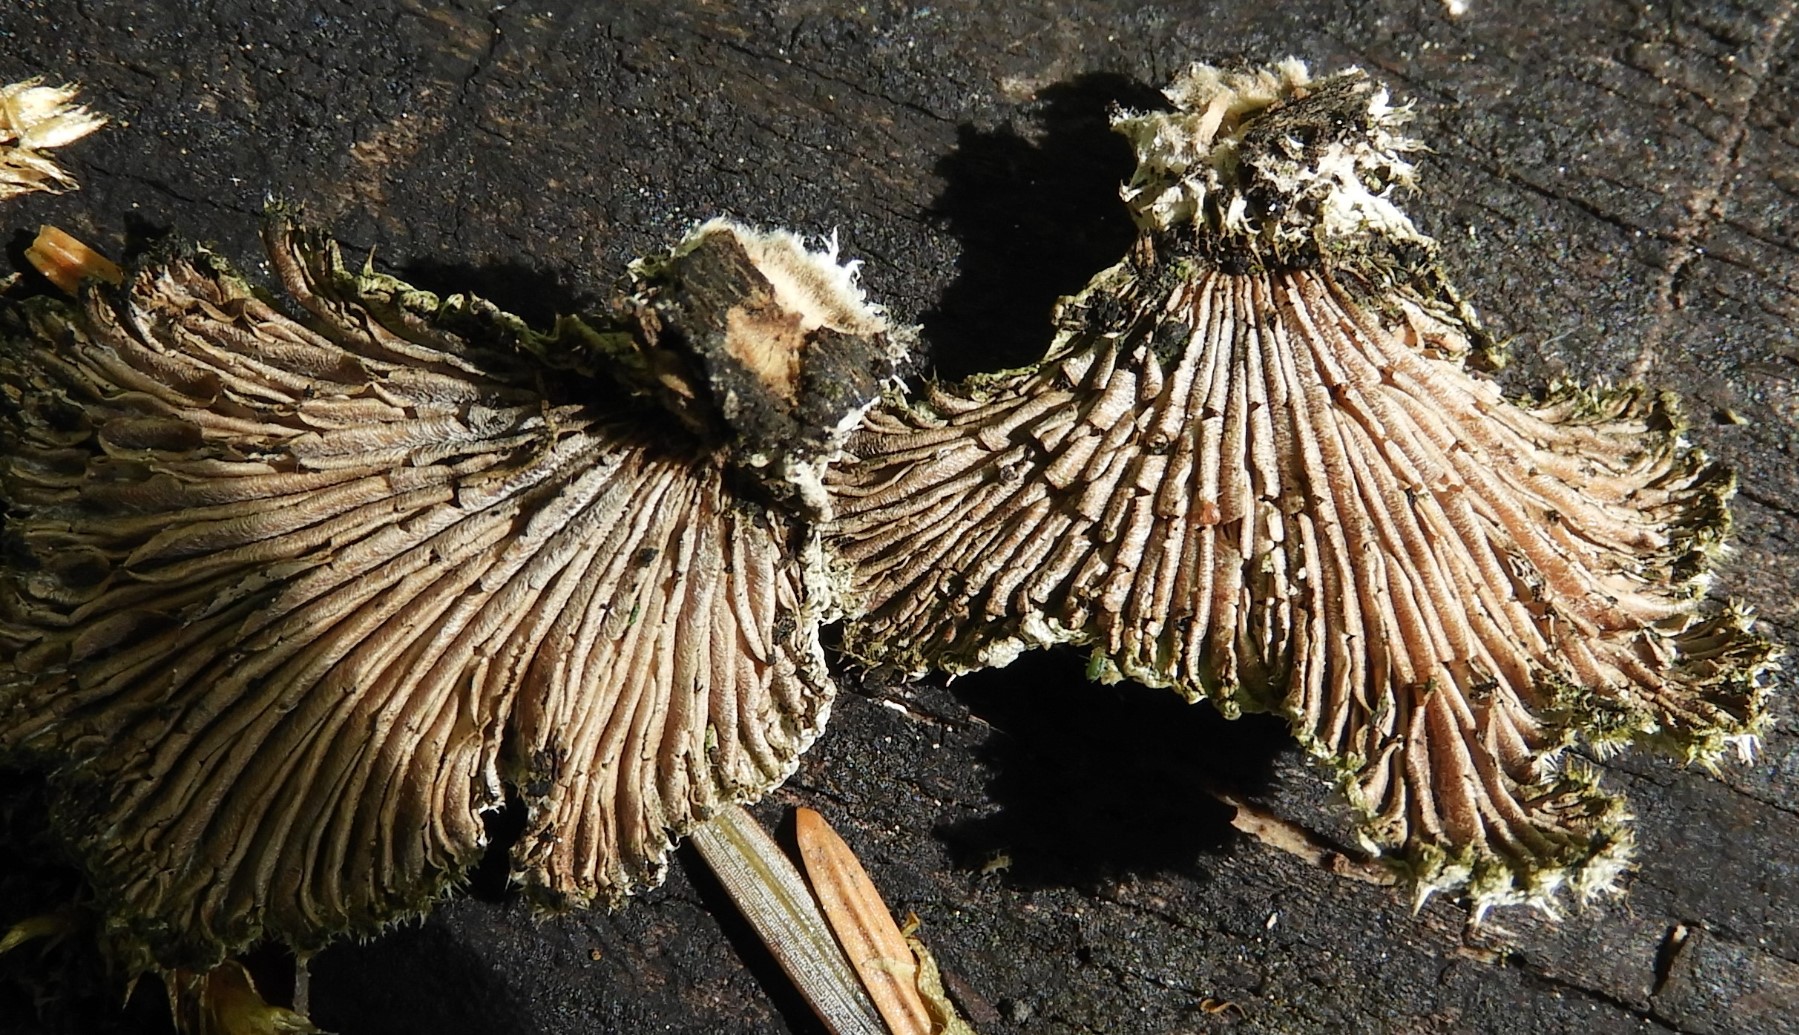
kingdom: Fungi
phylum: Basidiomycota
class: Agaricomycetes
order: Agaricales
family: Schizophyllaceae
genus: Schizophyllum
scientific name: Schizophyllum commune
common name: kløvblad
